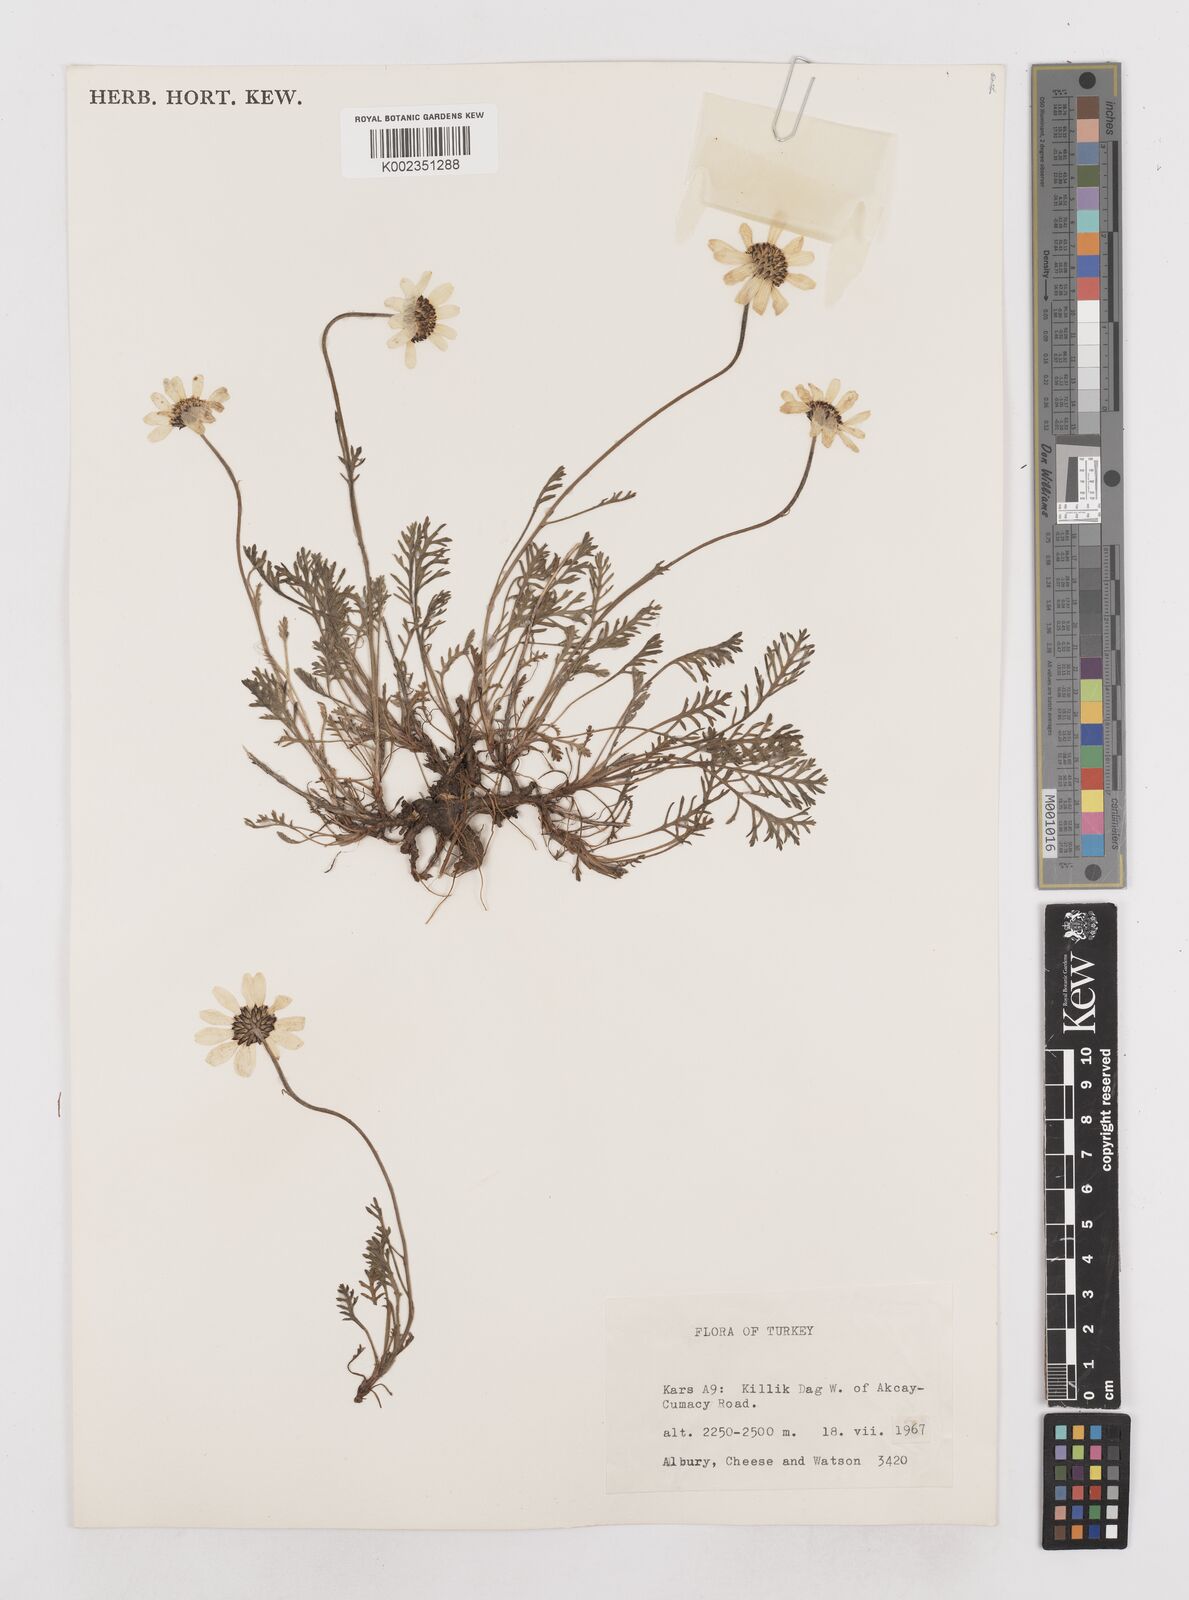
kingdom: Plantae
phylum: Tracheophyta
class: Magnoliopsida
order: Asterales
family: Asteraceae
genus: Anthemis
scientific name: Anthemis cretica
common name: Mountain dog-daisy
